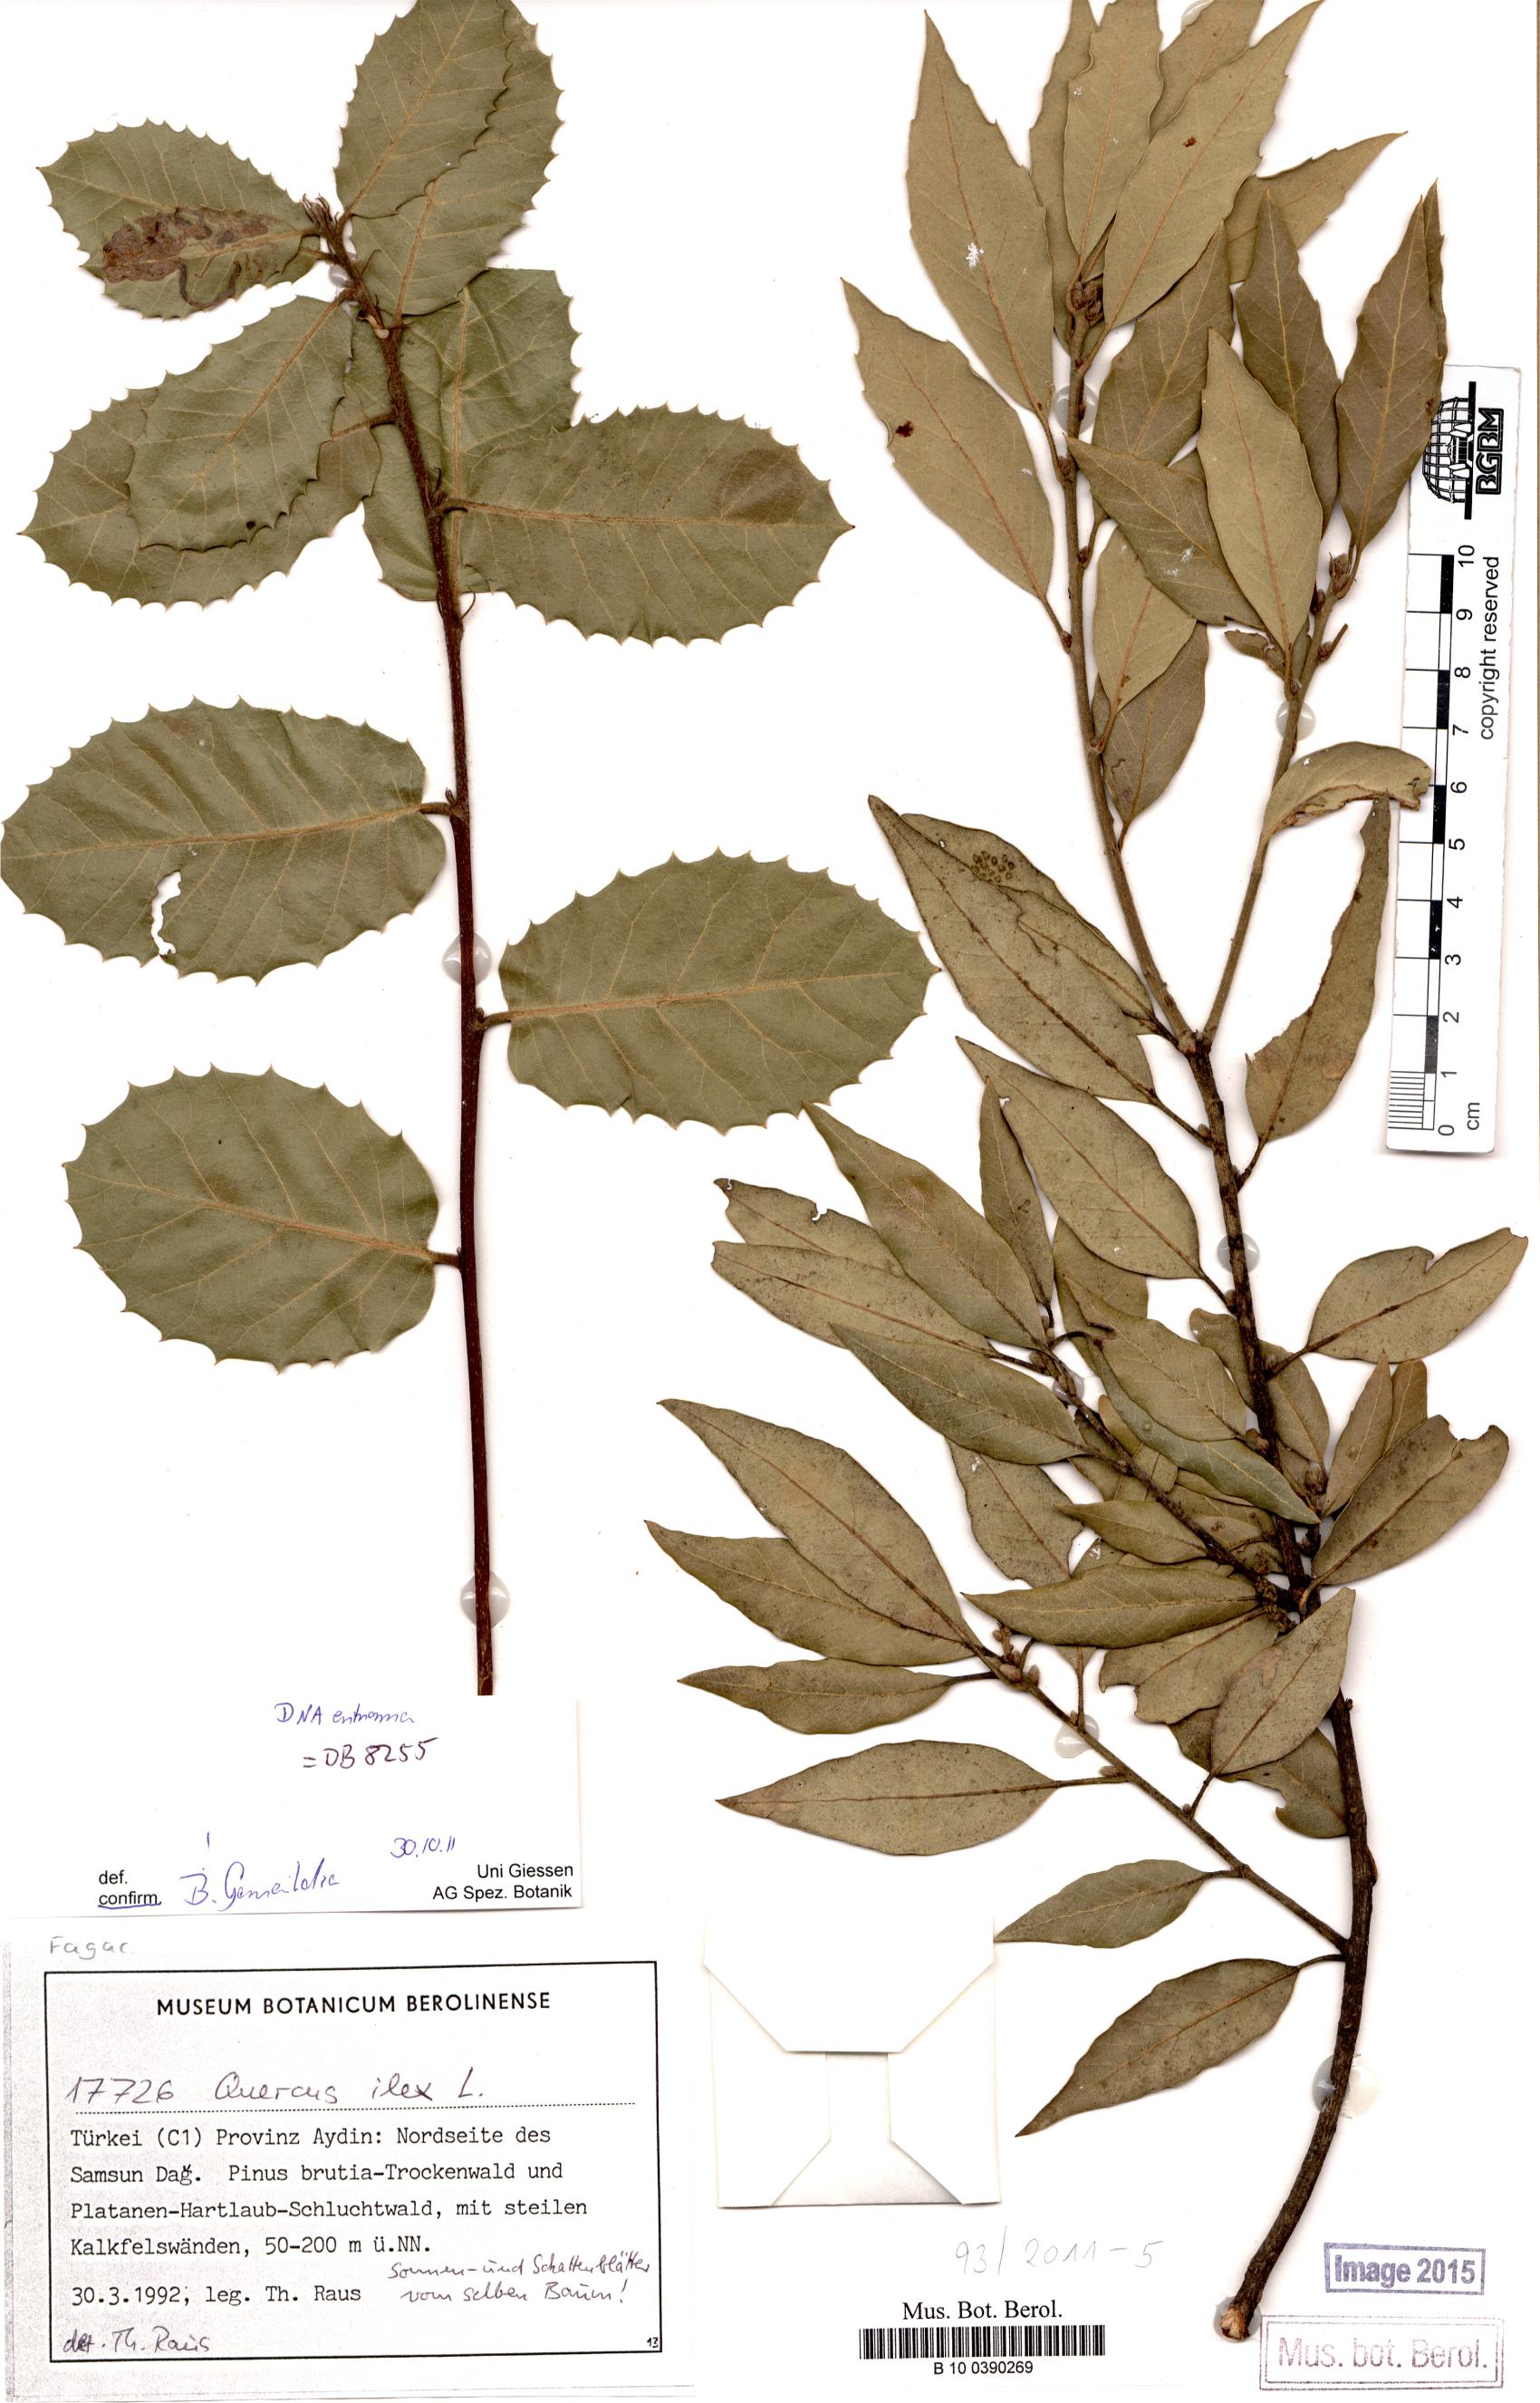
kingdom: Plantae
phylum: Tracheophyta
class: Magnoliopsida
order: Fagales
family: Fagaceae
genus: Quercus
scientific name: Quercus ilex
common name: Evergreen oak
